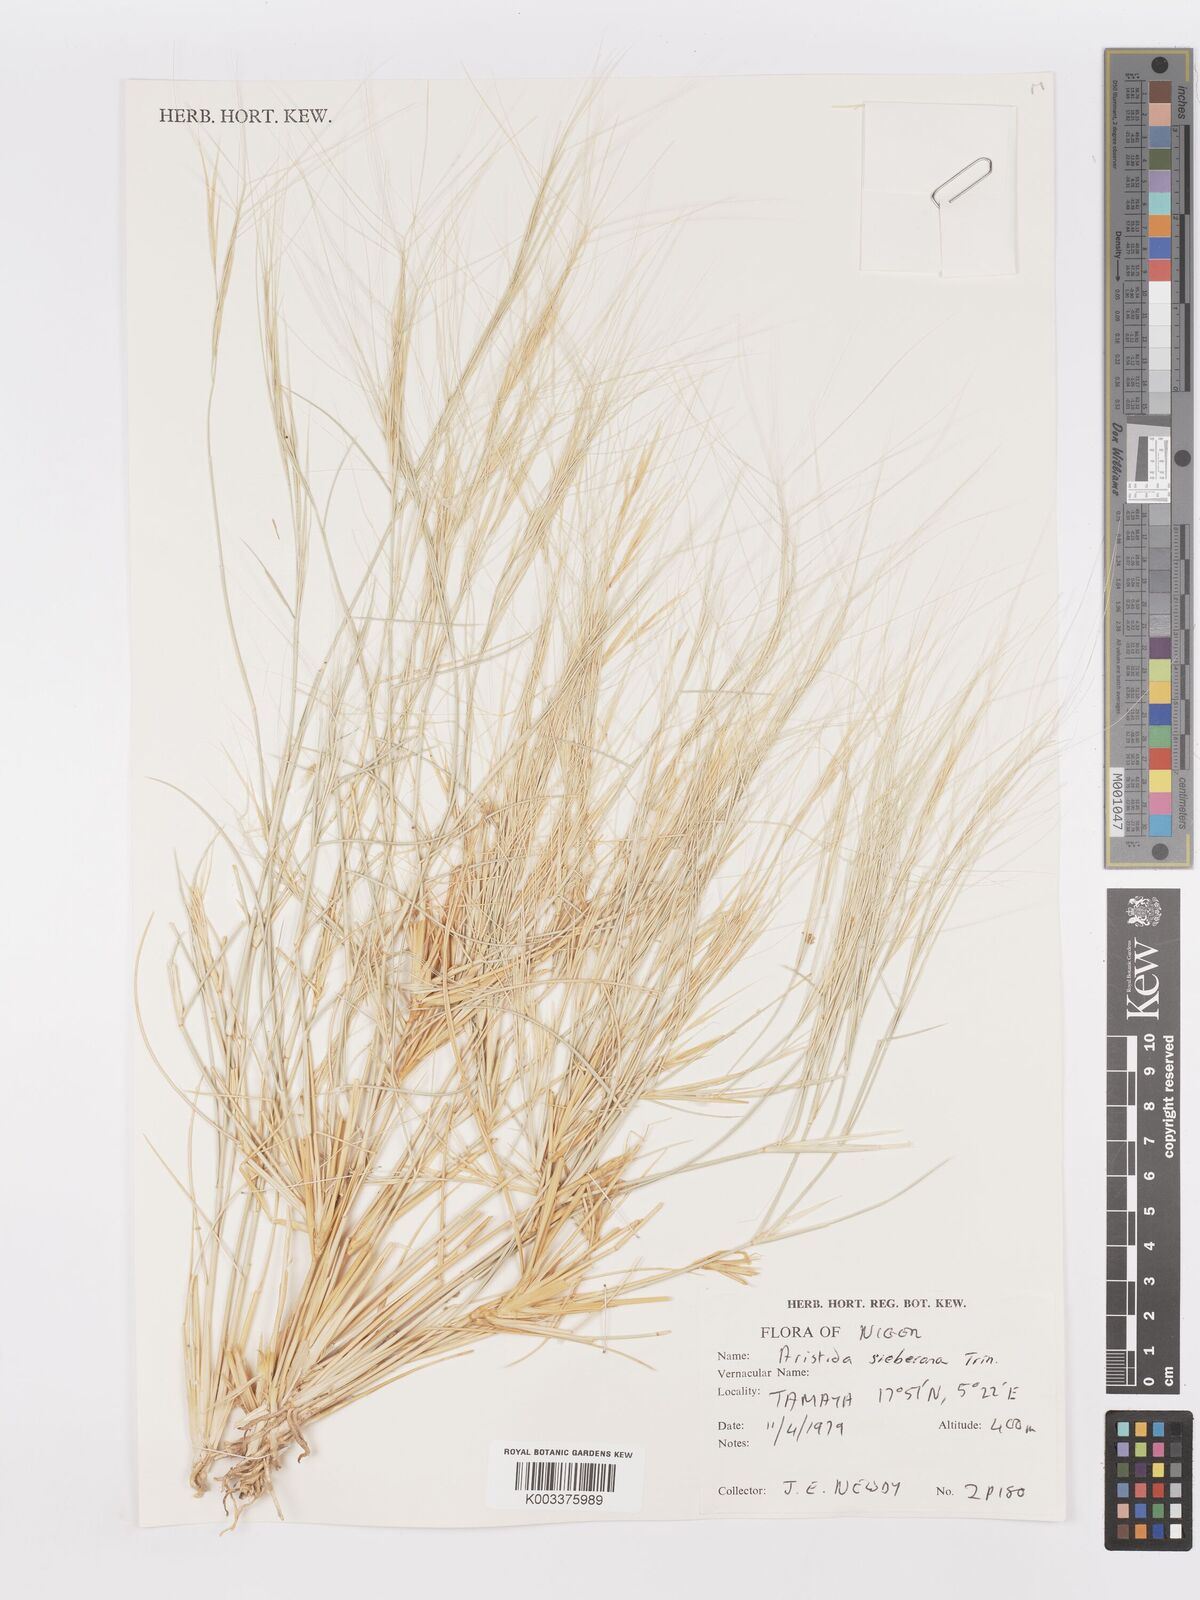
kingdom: Plantae
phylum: Tracheophyta
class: Liliopsida
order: Poales
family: Poaceae
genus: Aristida
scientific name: Aristida sieberiana
